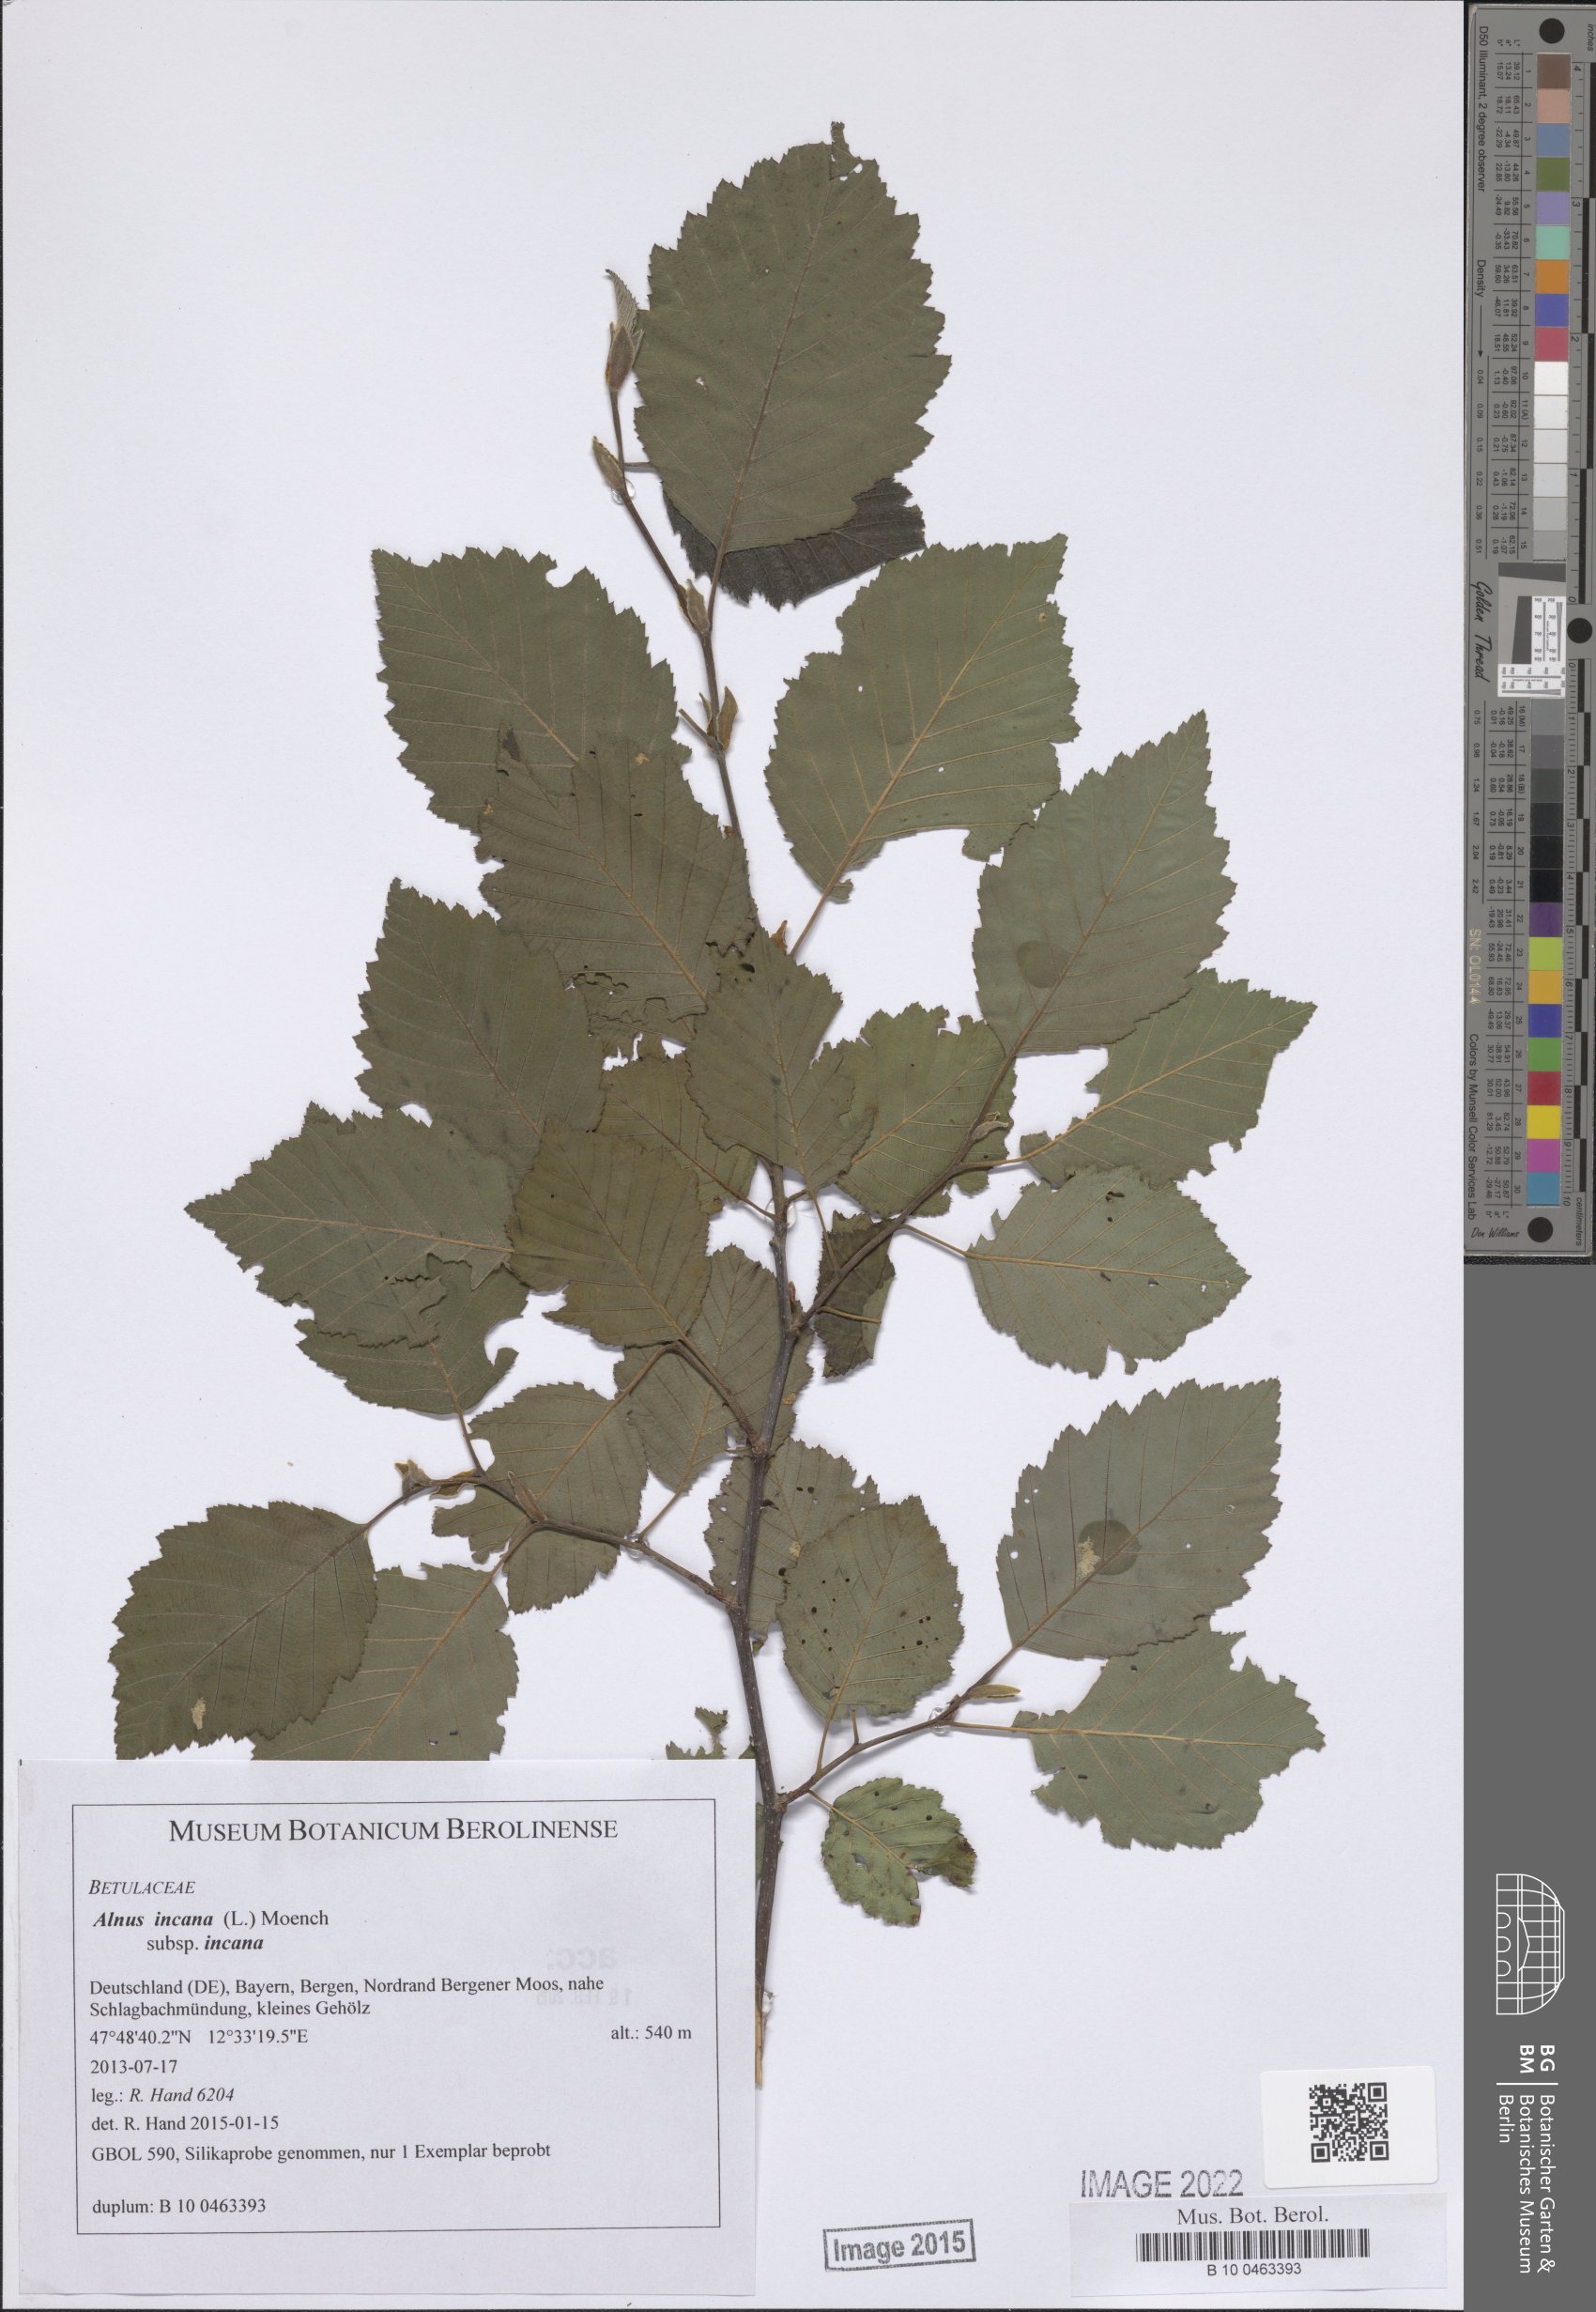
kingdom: Plantae
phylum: Tracheophyta
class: Magnoliopsida
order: Fagales
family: Betulaceae
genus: Alnus
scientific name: Alnus incana
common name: Grey alder
